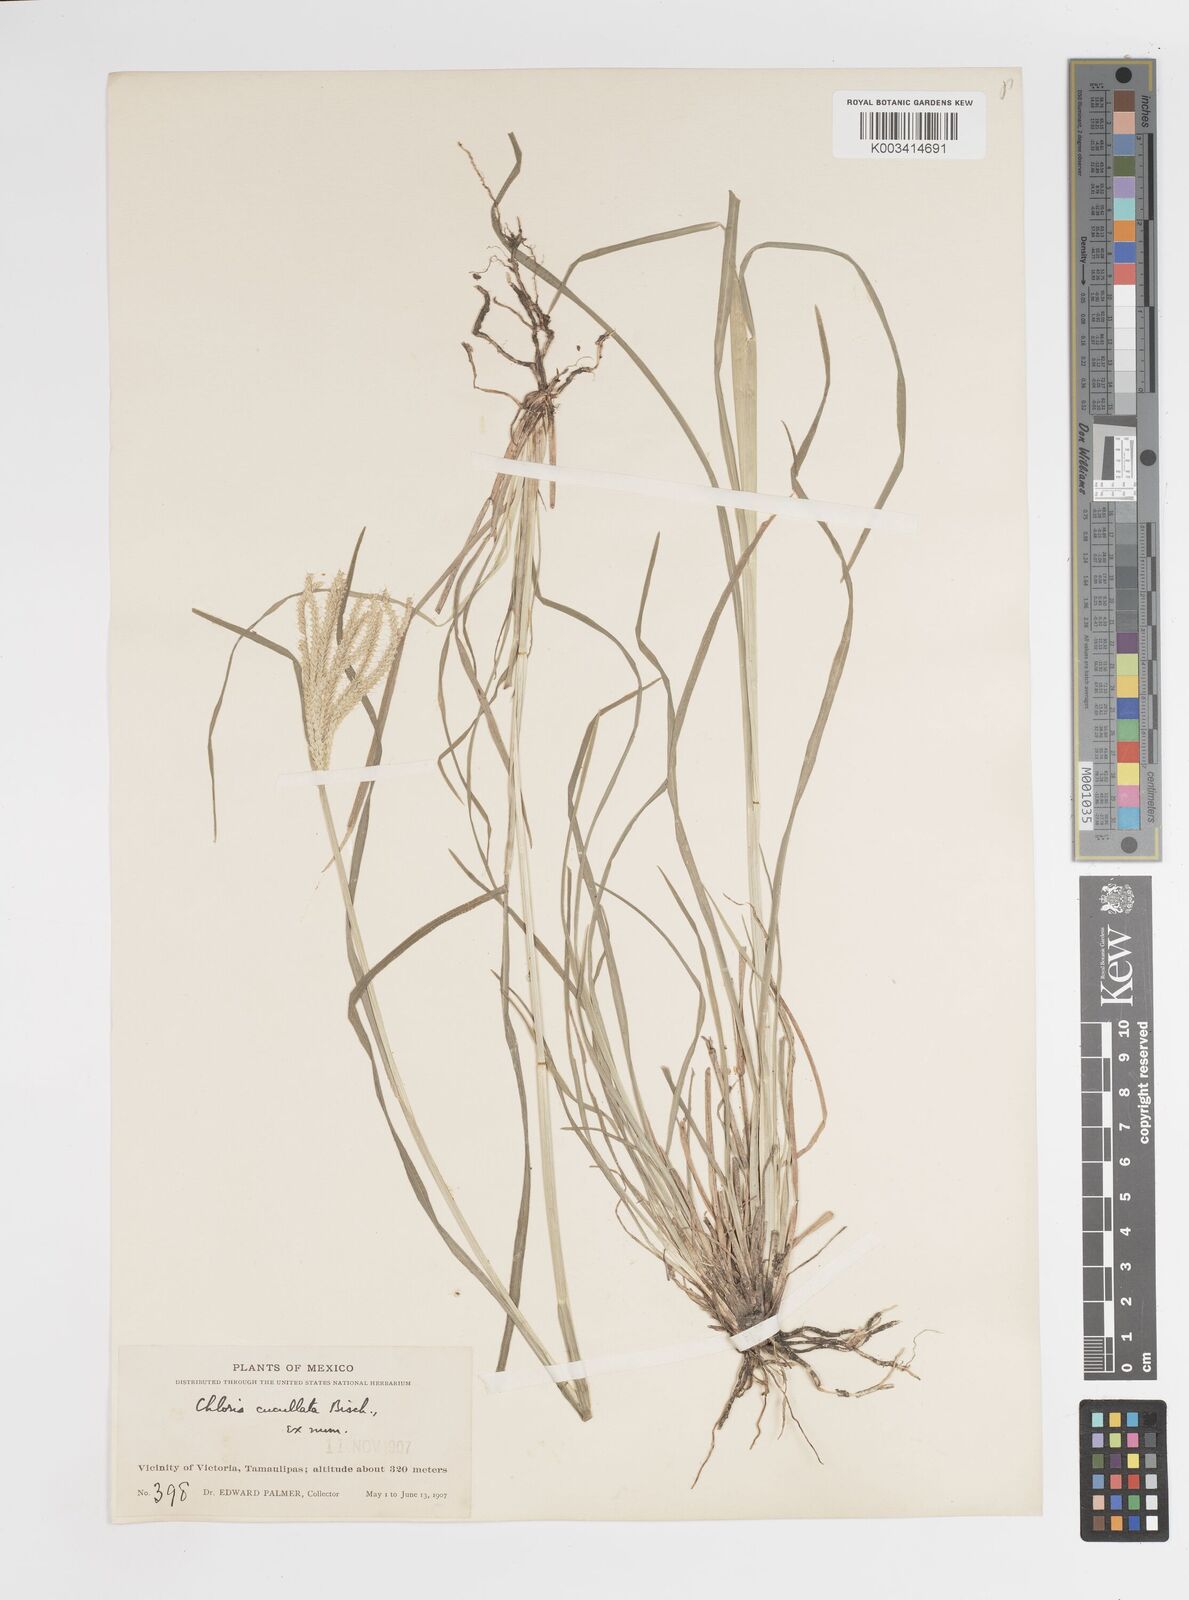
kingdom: Plantae
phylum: Tracheophyta
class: Liliopsida
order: Poales
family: Poaceae
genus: Chloris
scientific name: Chloris cucullata
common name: Hooded windmill grass
